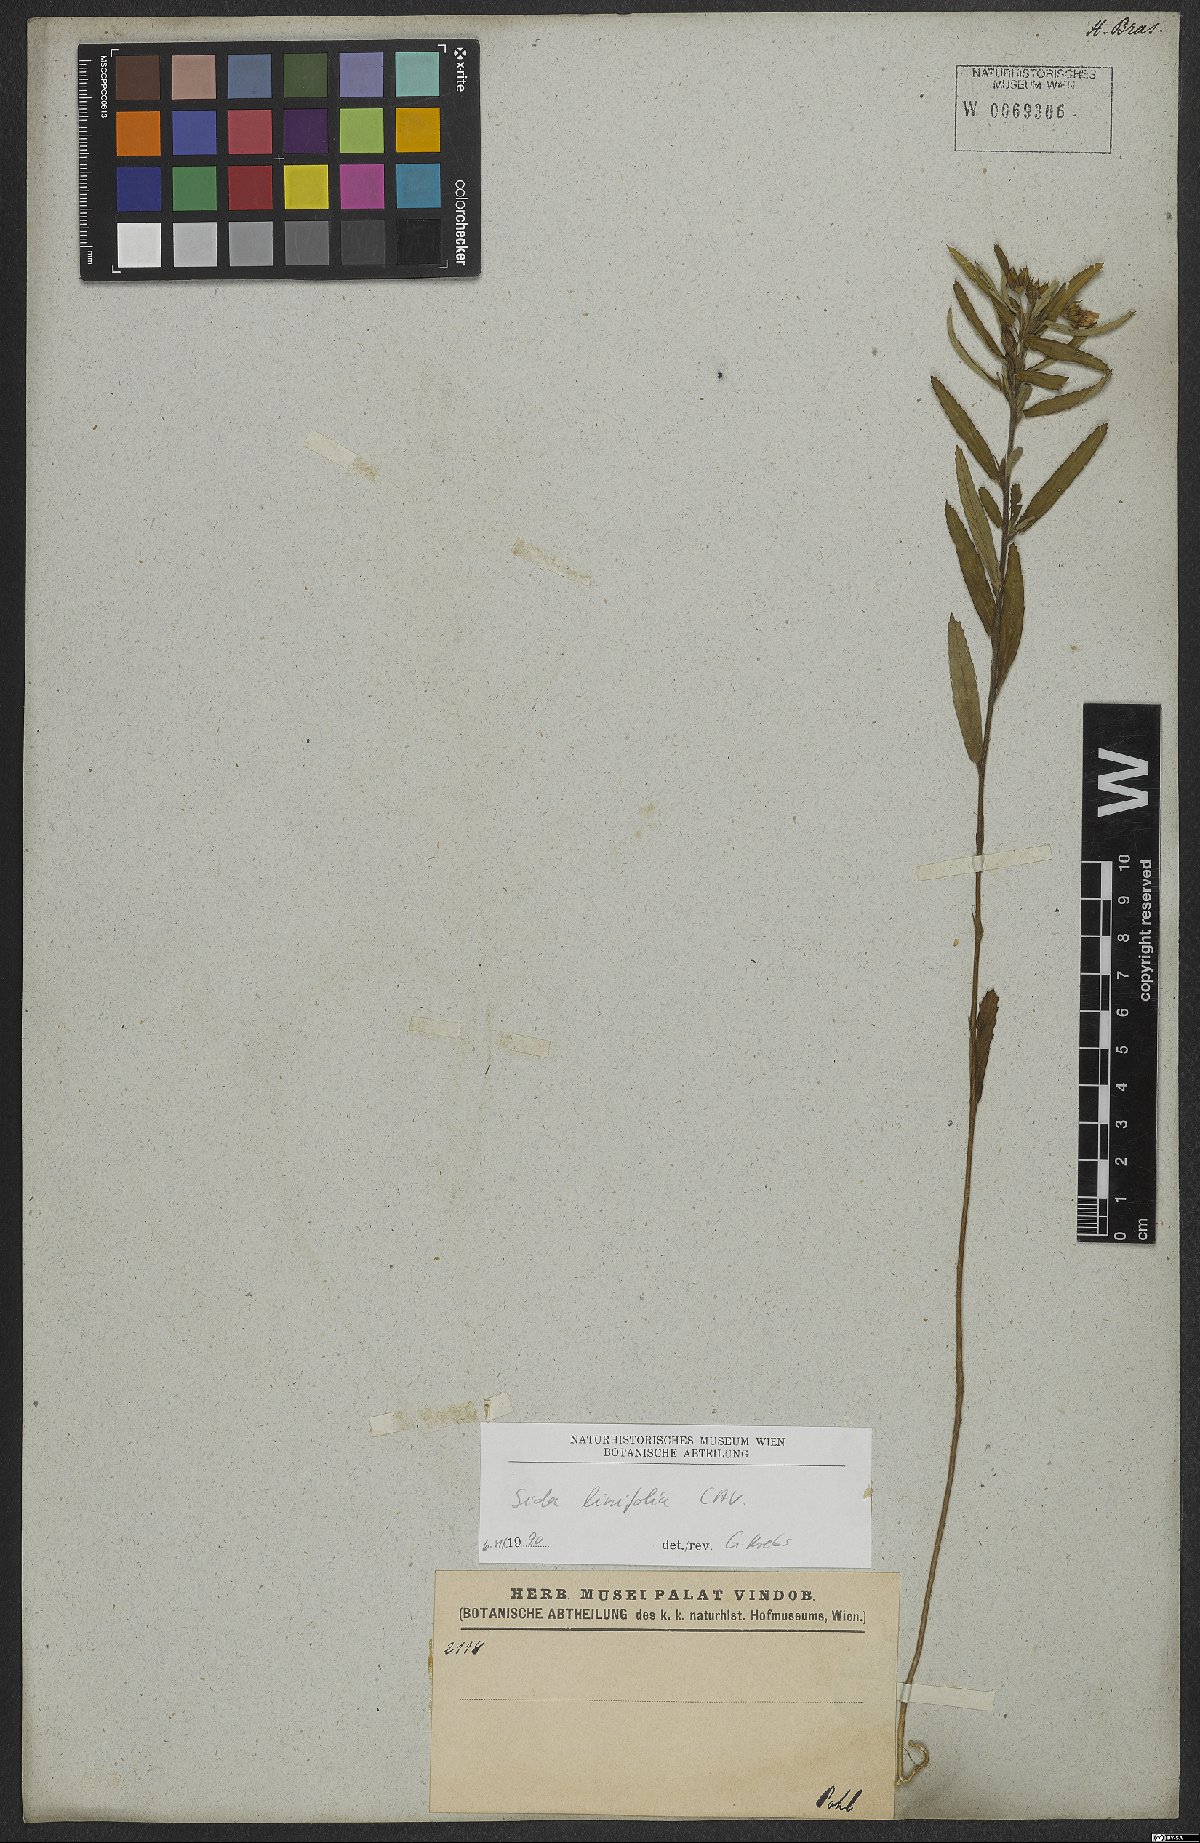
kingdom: Plantae
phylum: Tracheophyta
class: Magnoliopsida
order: Malvales
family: Malvaceae
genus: Sida
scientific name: Sida linifolia
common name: Flaxleaf fanpetals
